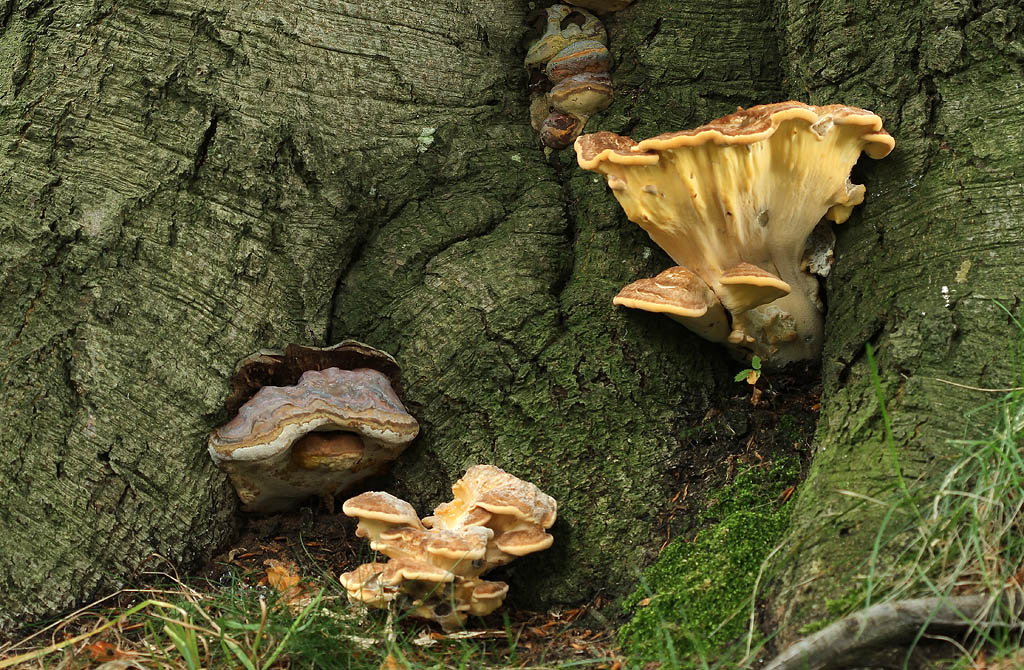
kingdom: Fungi
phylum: Basidiomycota
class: Agaricomycetes
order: Polyporales
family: Polyporaceae
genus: Ganoderma
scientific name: Ganoderma pfeifferi
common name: kobberrød lakporesvamp
